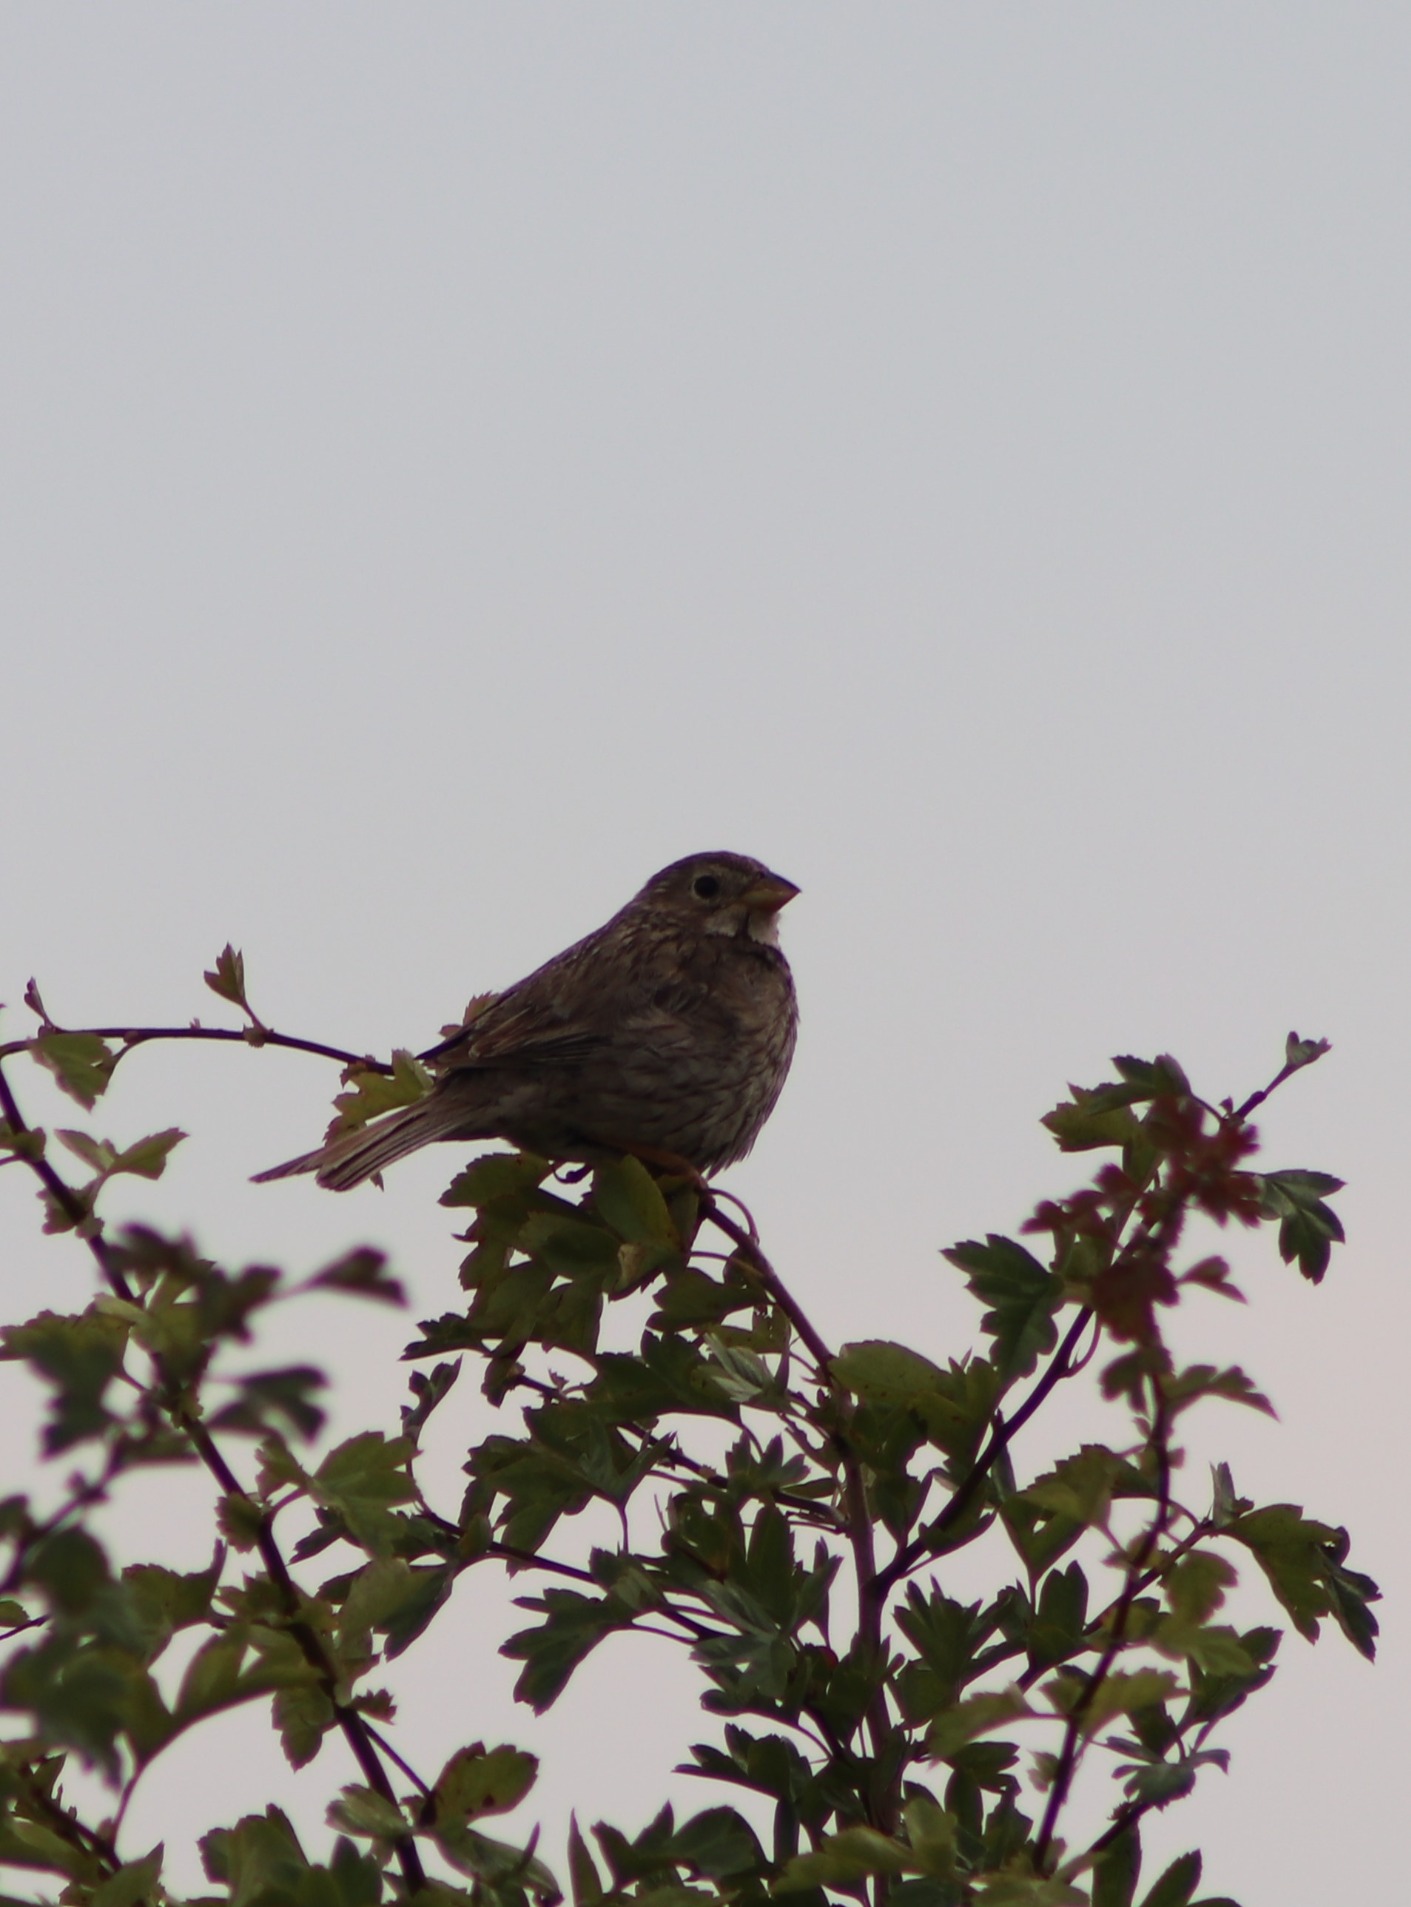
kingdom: Animalia
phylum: Chordata
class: Aves
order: Passeriformes
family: Emberizidae
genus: Emberiza
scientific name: Emberiza calandra
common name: Bomlærke
